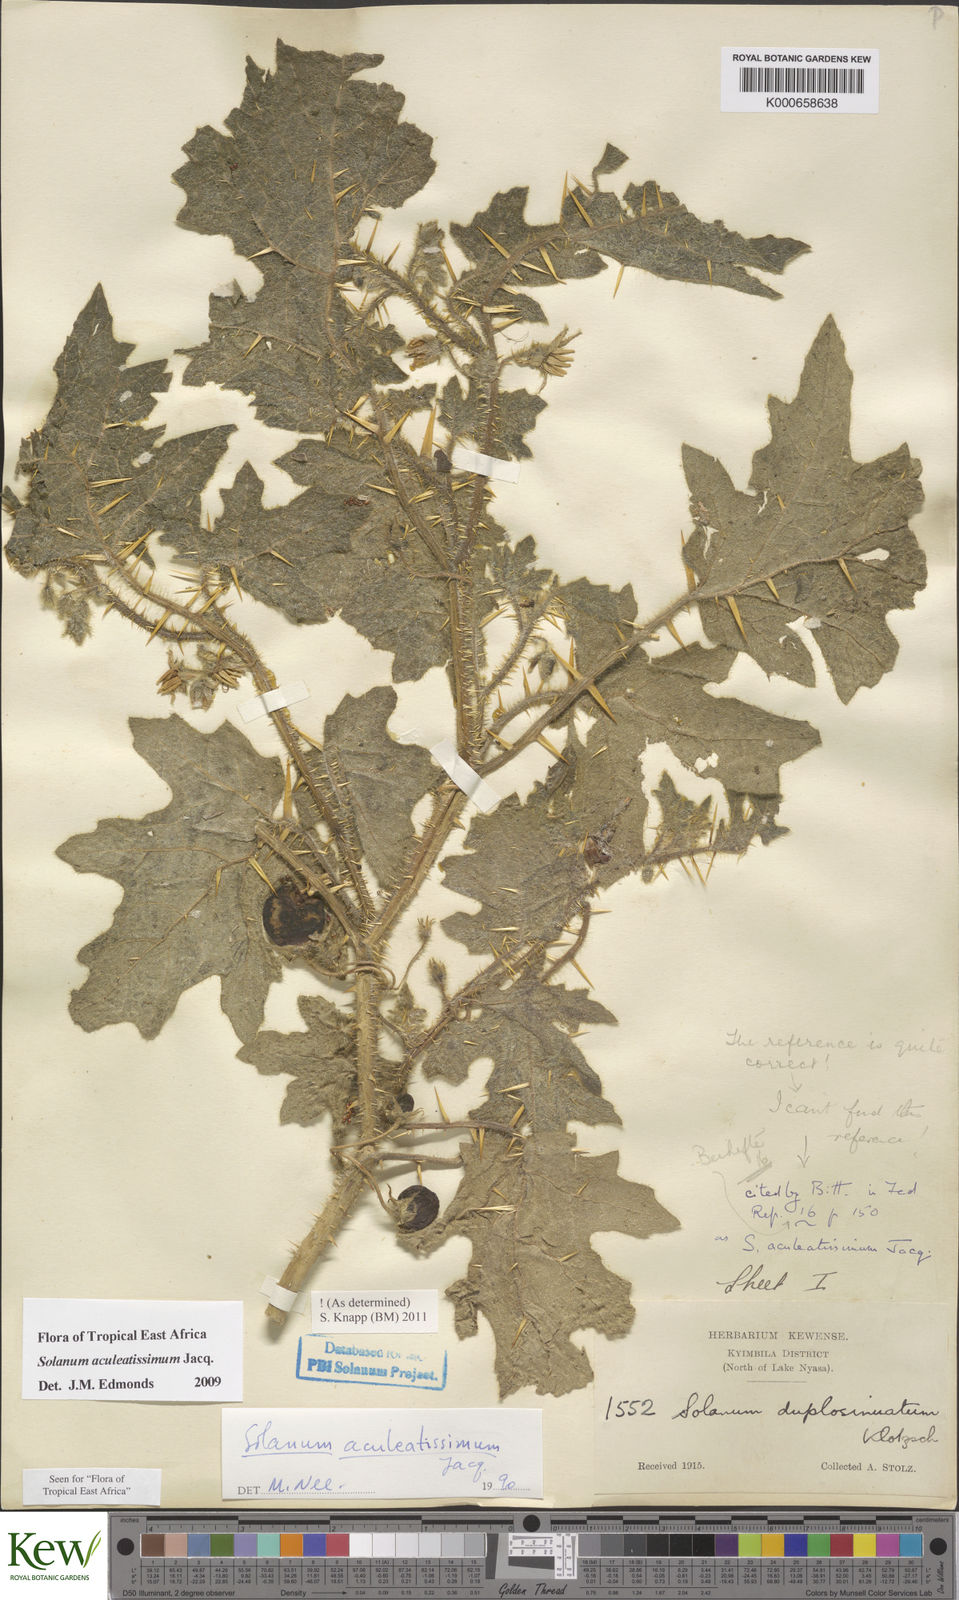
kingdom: Plantae
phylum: Tracheophyta
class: Magnoliopsida
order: Solanales
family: Solanaceae
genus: Solanum
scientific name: Solanum aculeatissimum
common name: Dutch eggplant
